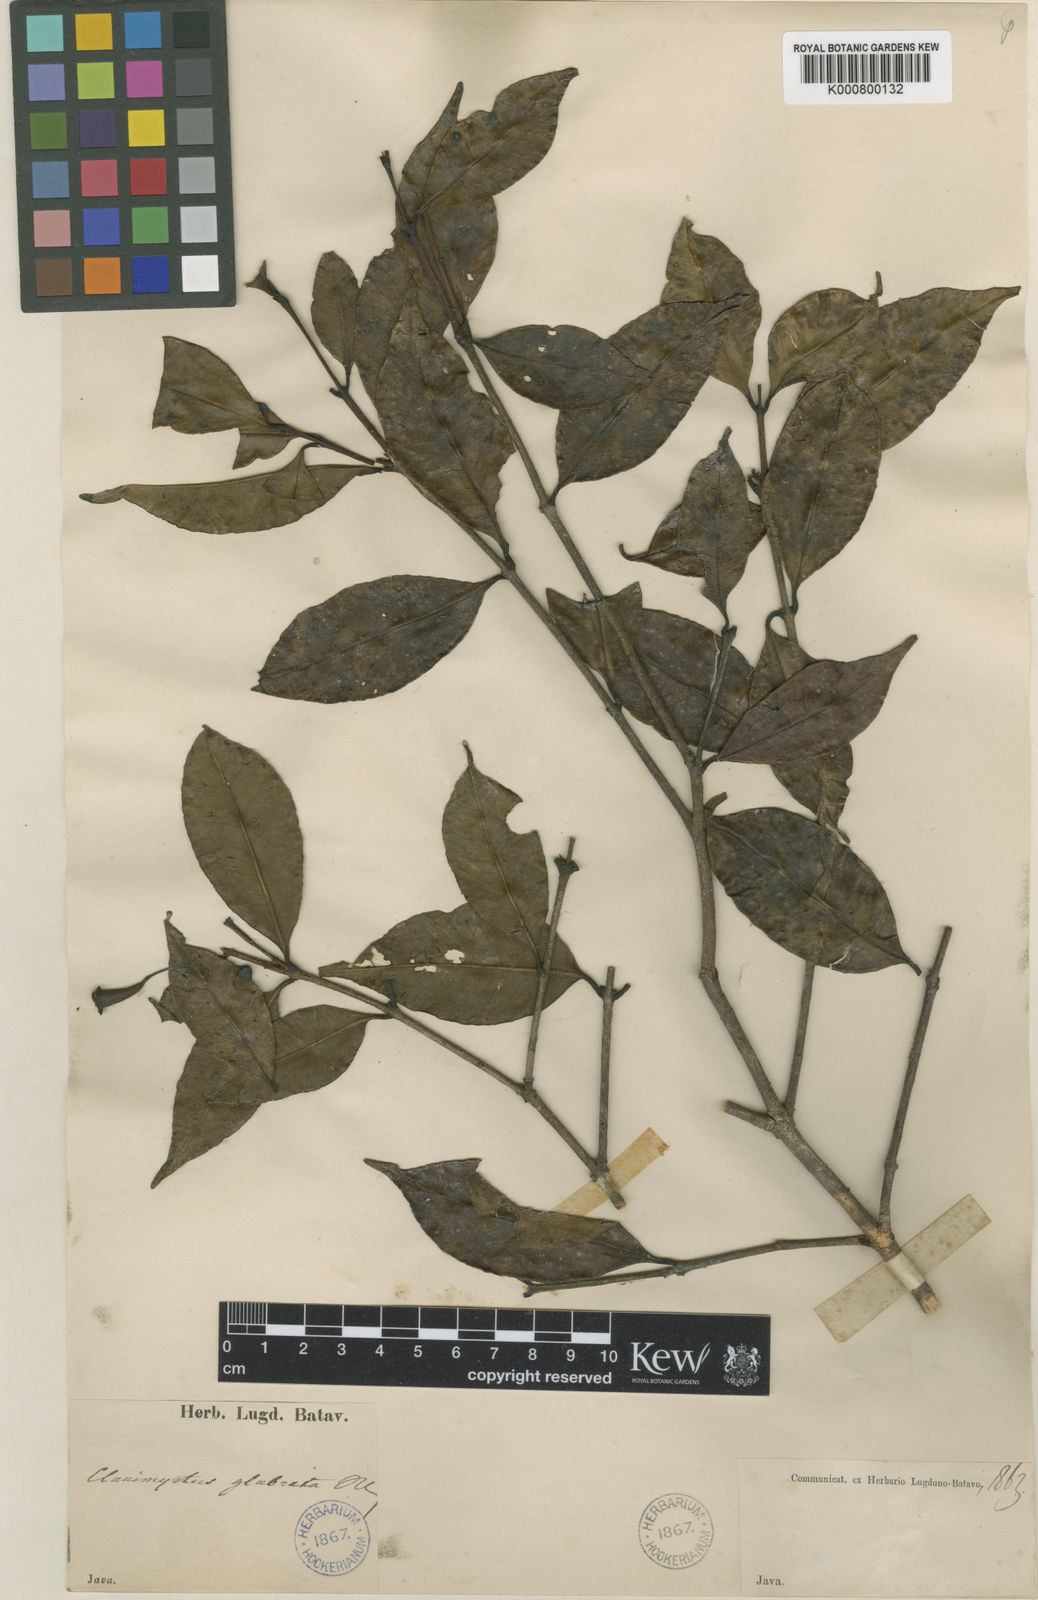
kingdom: Plantae
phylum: Tracheophyta
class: Magnoliopsida
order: Myrtales
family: Myrtaceae
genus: Syzygium
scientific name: Syzygium
